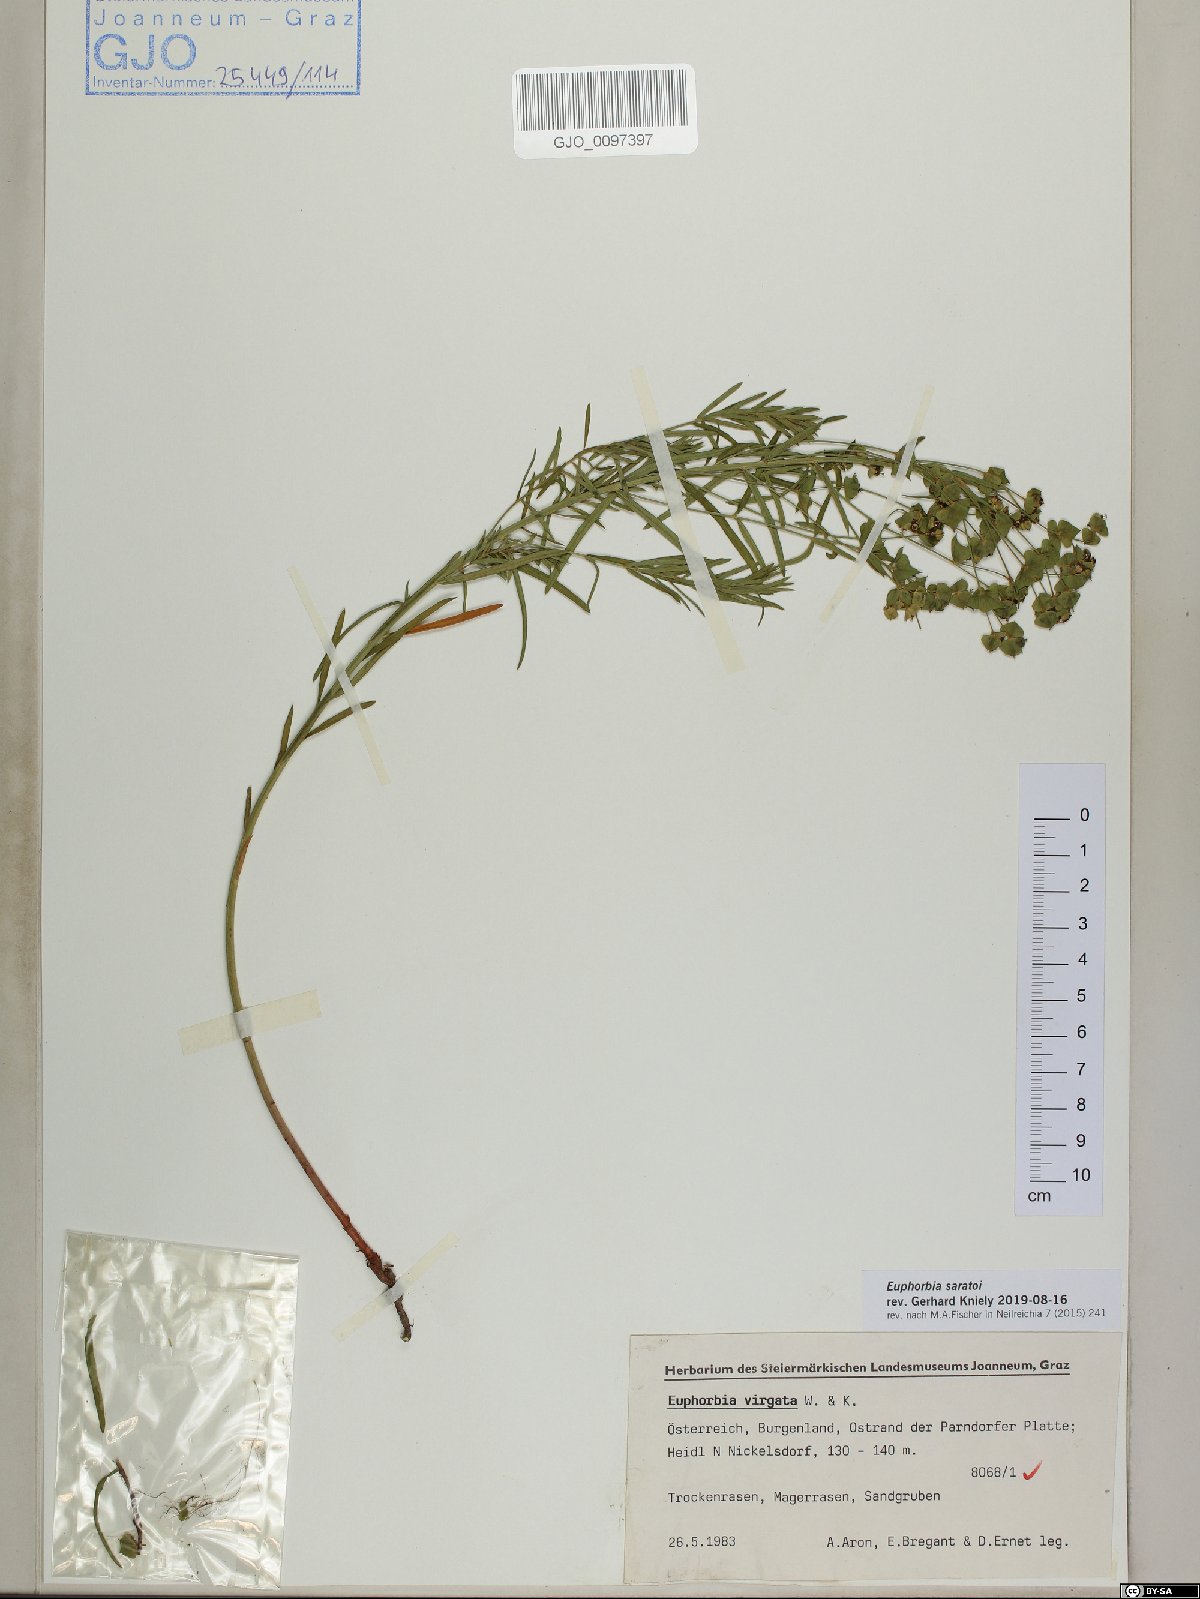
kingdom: Plantae
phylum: Tracheophyta
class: Magnoliopsida
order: Malpighiales
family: Euphorbiaceae
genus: Euphorbia
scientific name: Euphorbia saratoi
